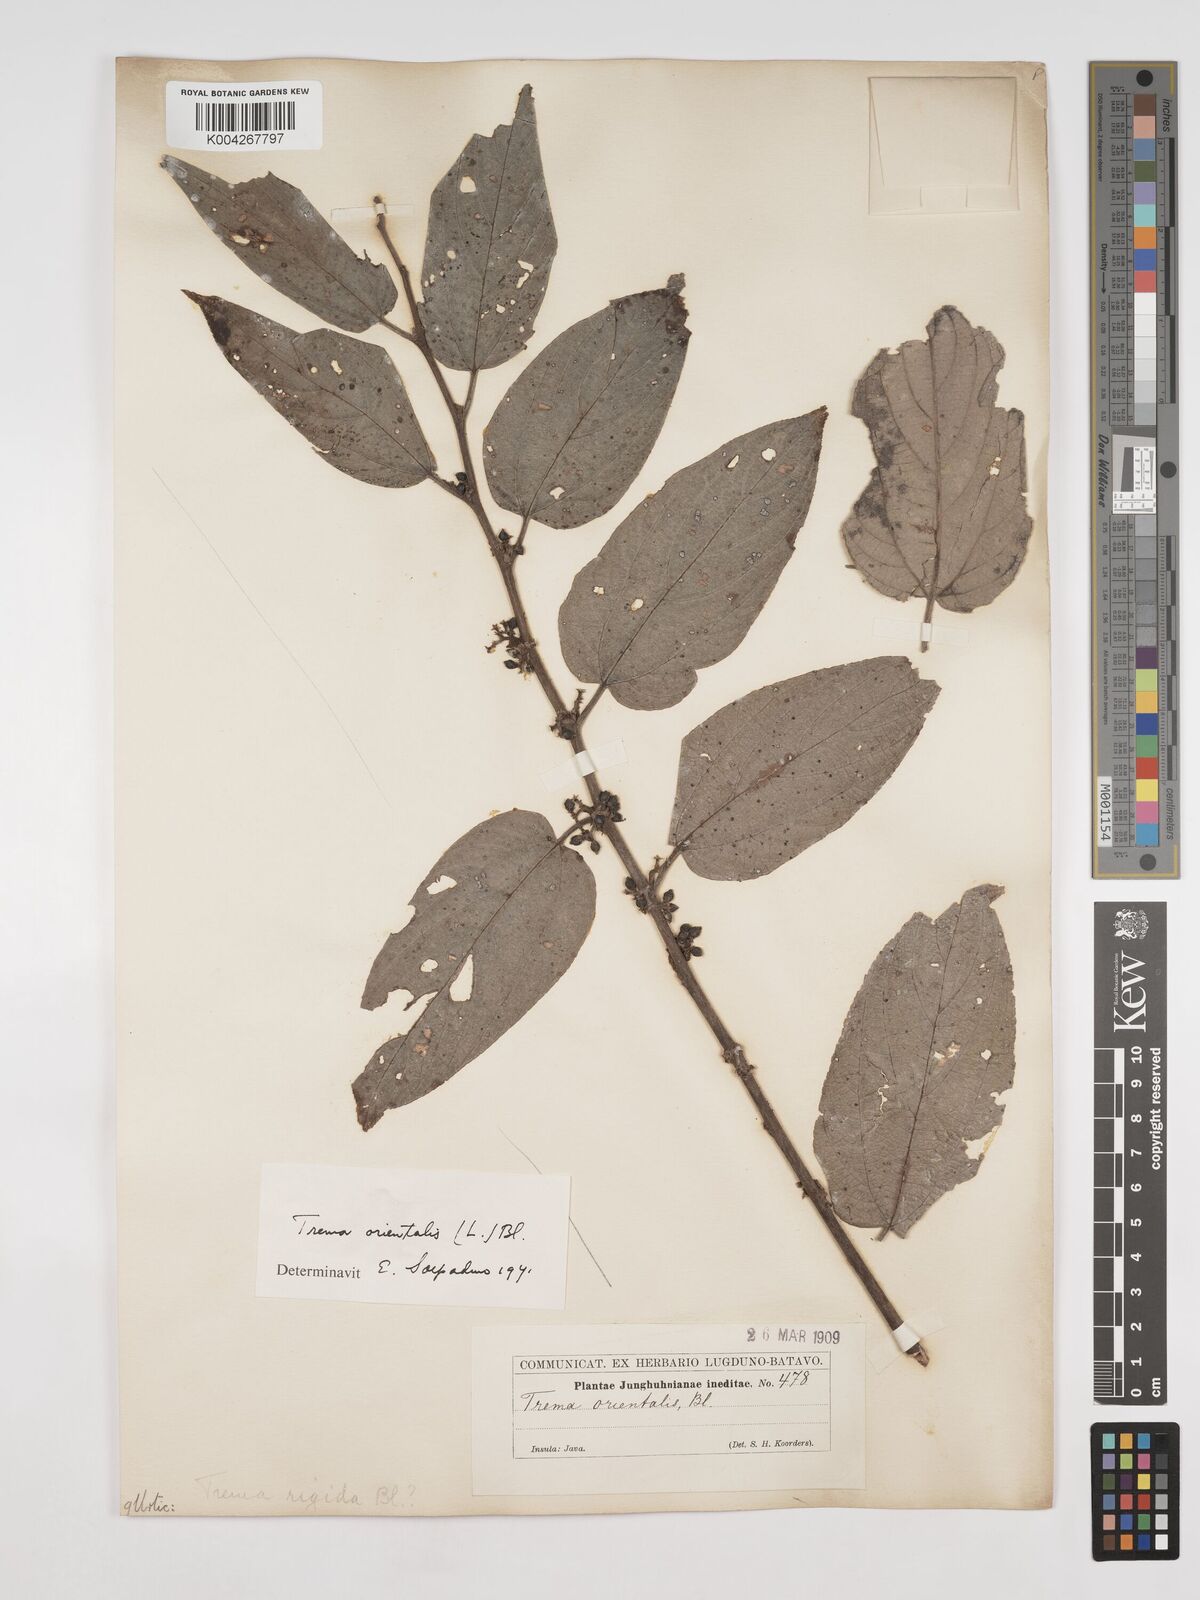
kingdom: Plantae
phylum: Tracheophyta
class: Magnoliopsida
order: Rosales
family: Cannabaceae
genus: Trema
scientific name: Trema orientale
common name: Indian charcoal tree
